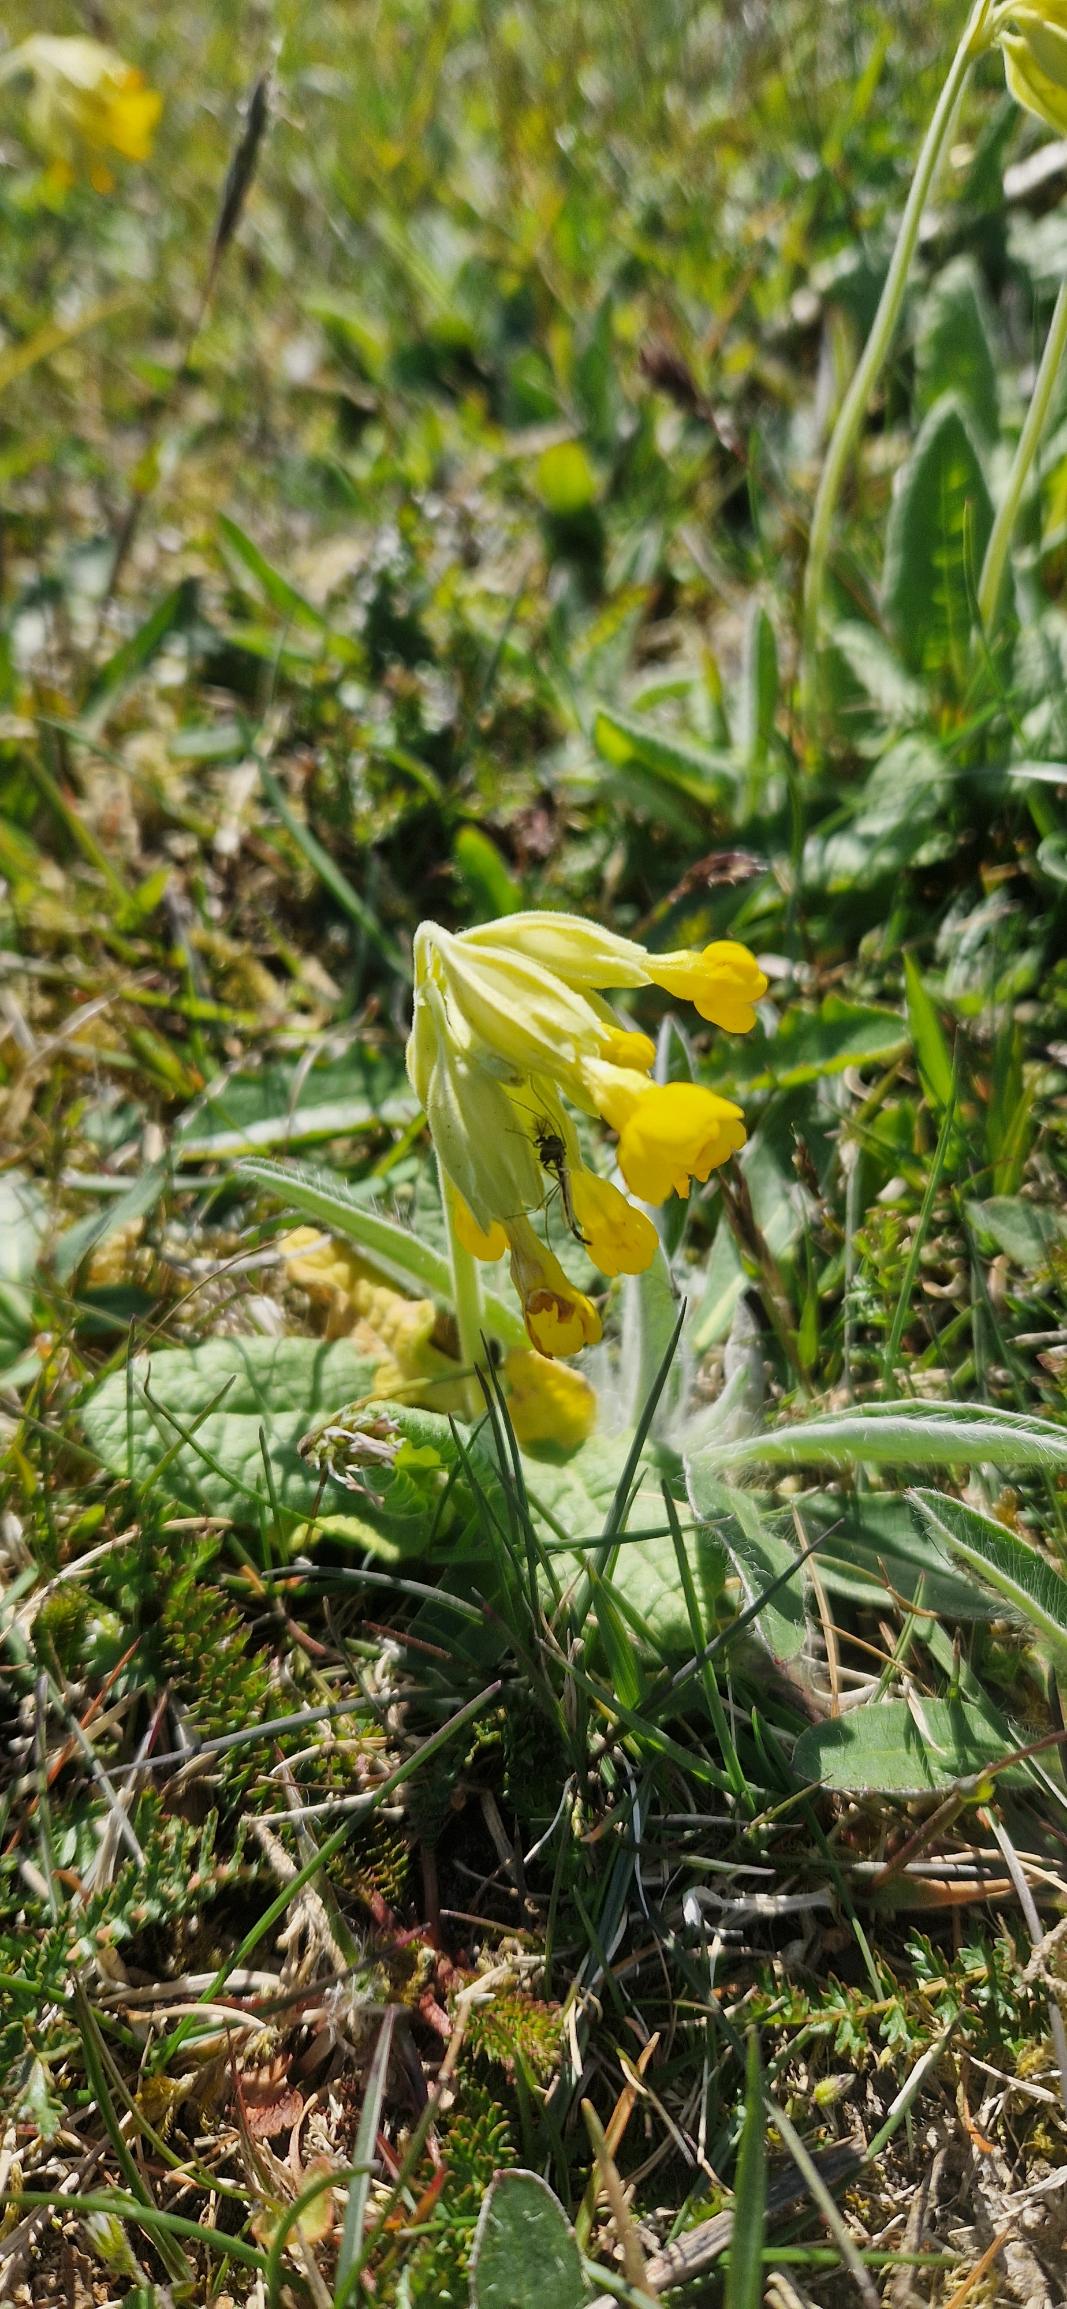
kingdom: Plantae
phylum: Tracheophyta
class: Magnoliopsida
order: Ericales
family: Primulaceae
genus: Primula
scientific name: Primula veris
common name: Hulkravet kodriver
